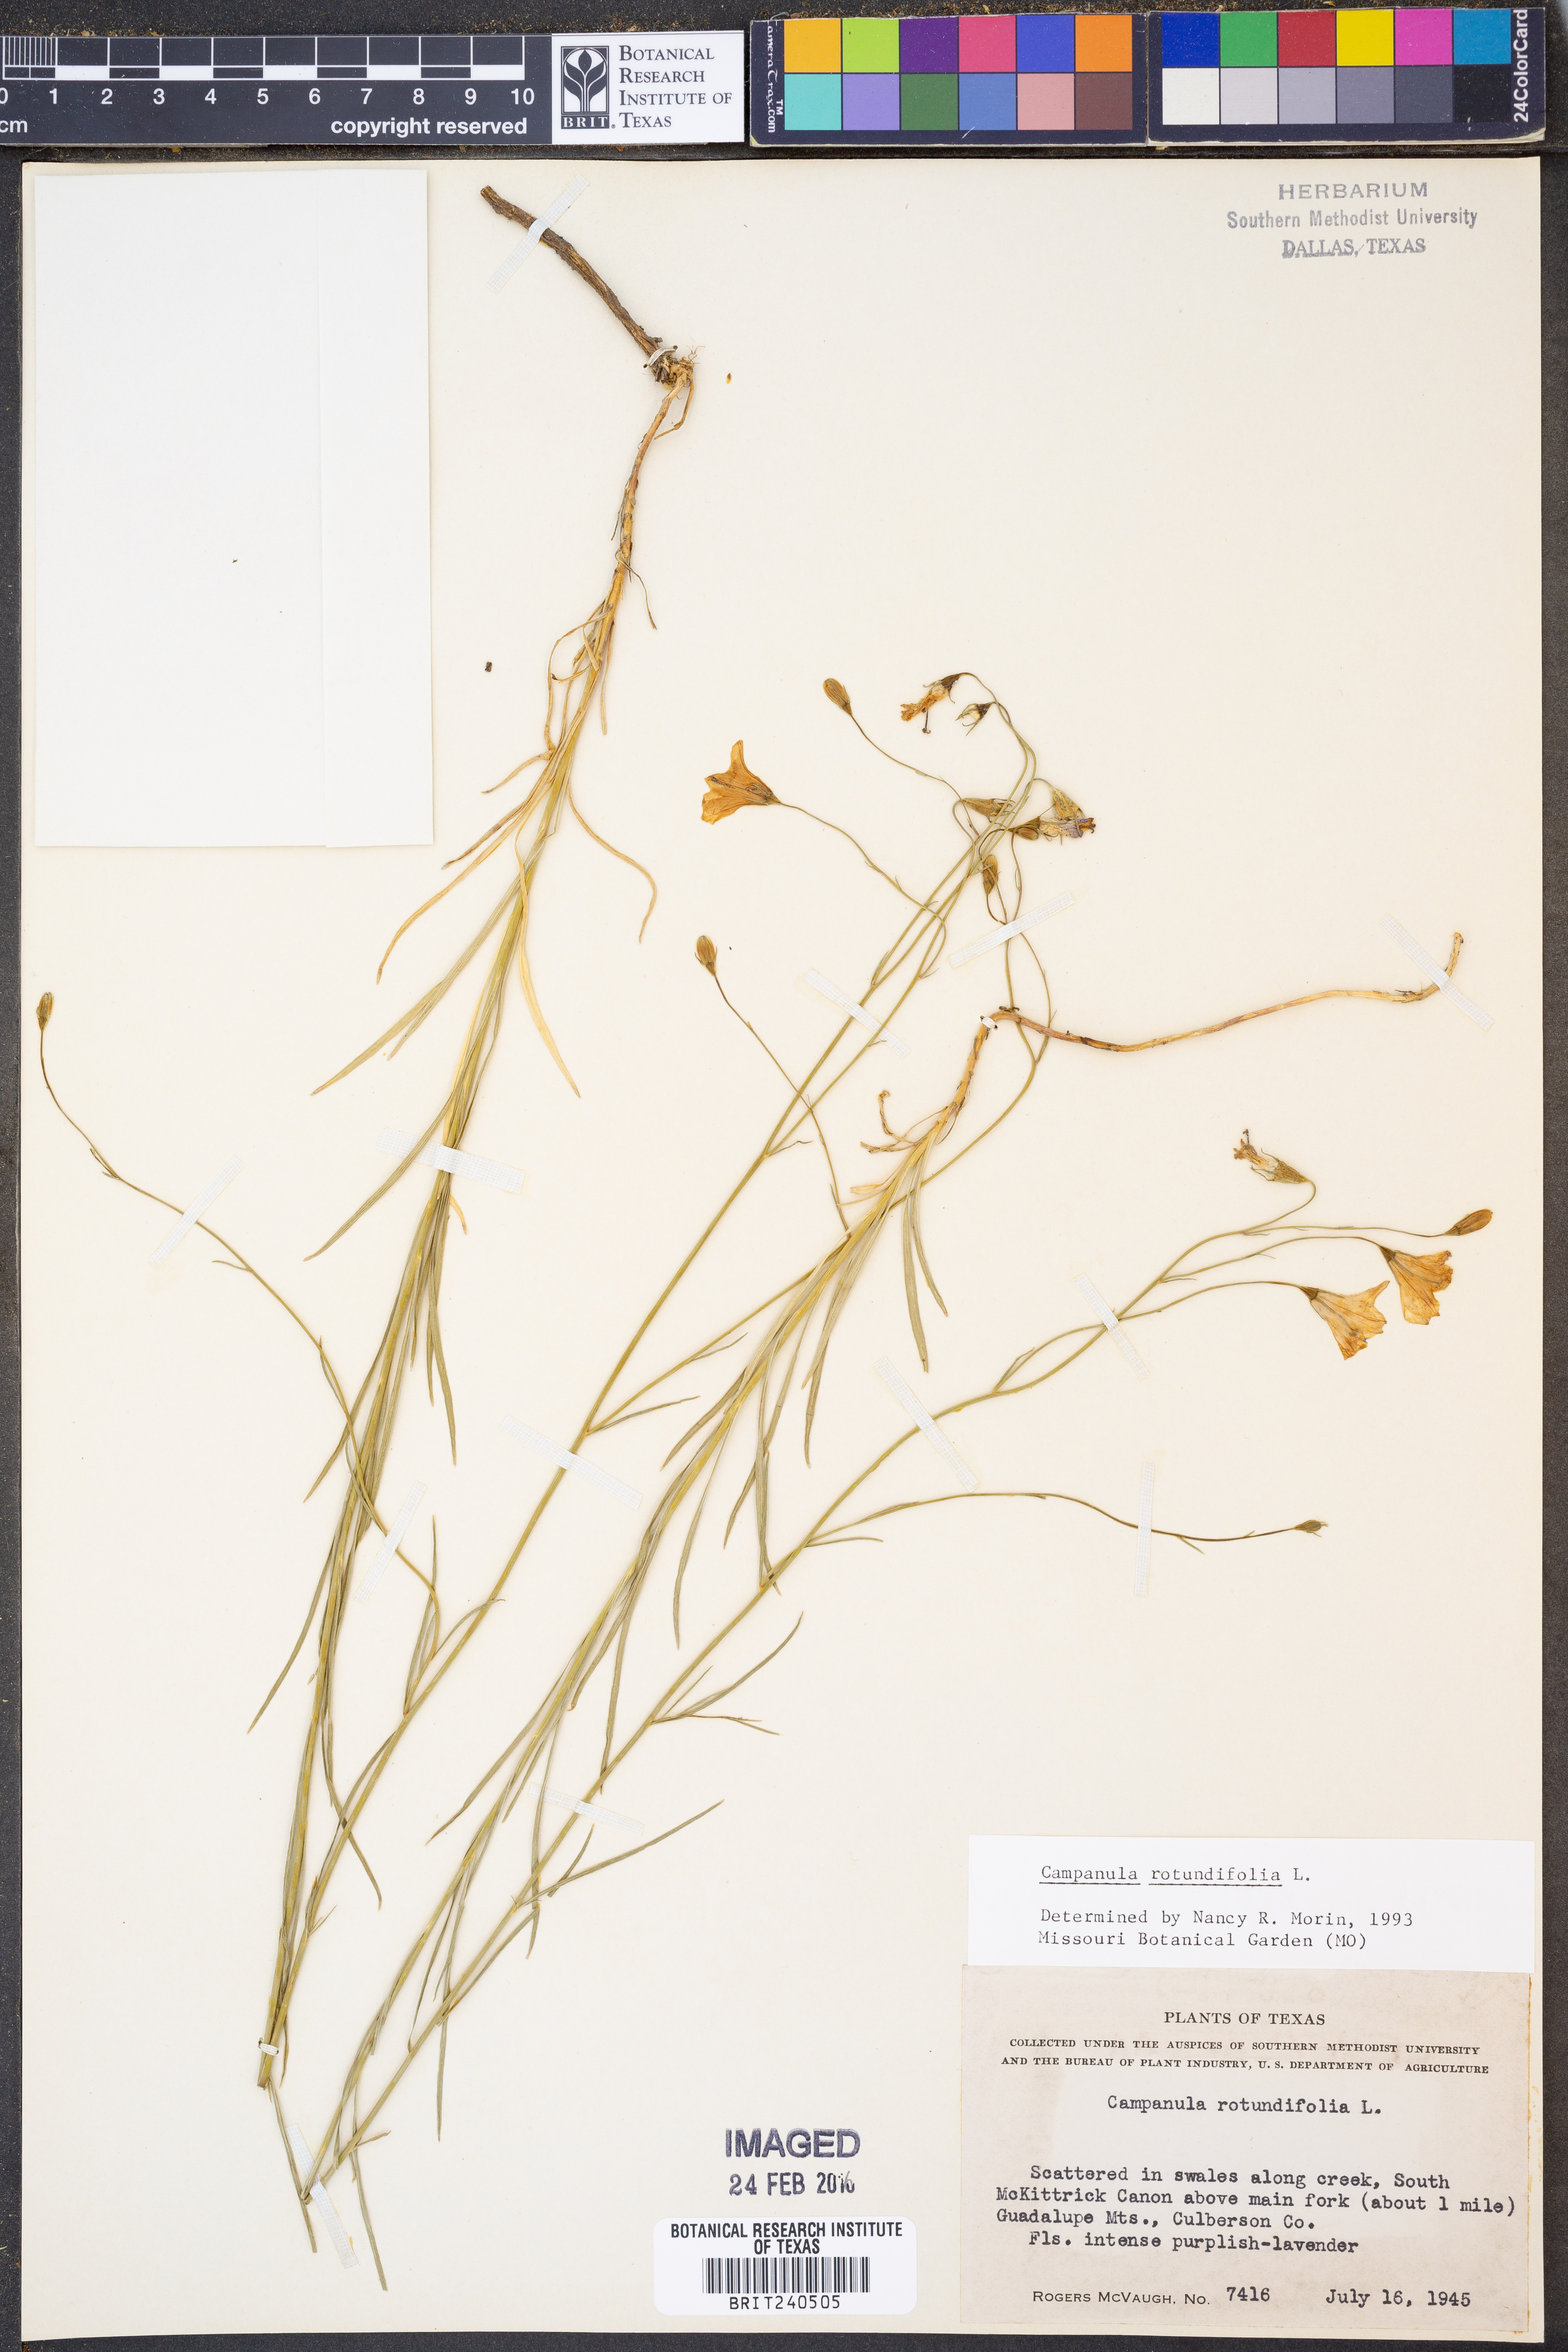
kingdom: Plantae
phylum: Tracheophyta
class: Magnoliopsida
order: Asterales
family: Campanulaceae
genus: Campanula
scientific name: Campanula rotundifolia
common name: Harebell
